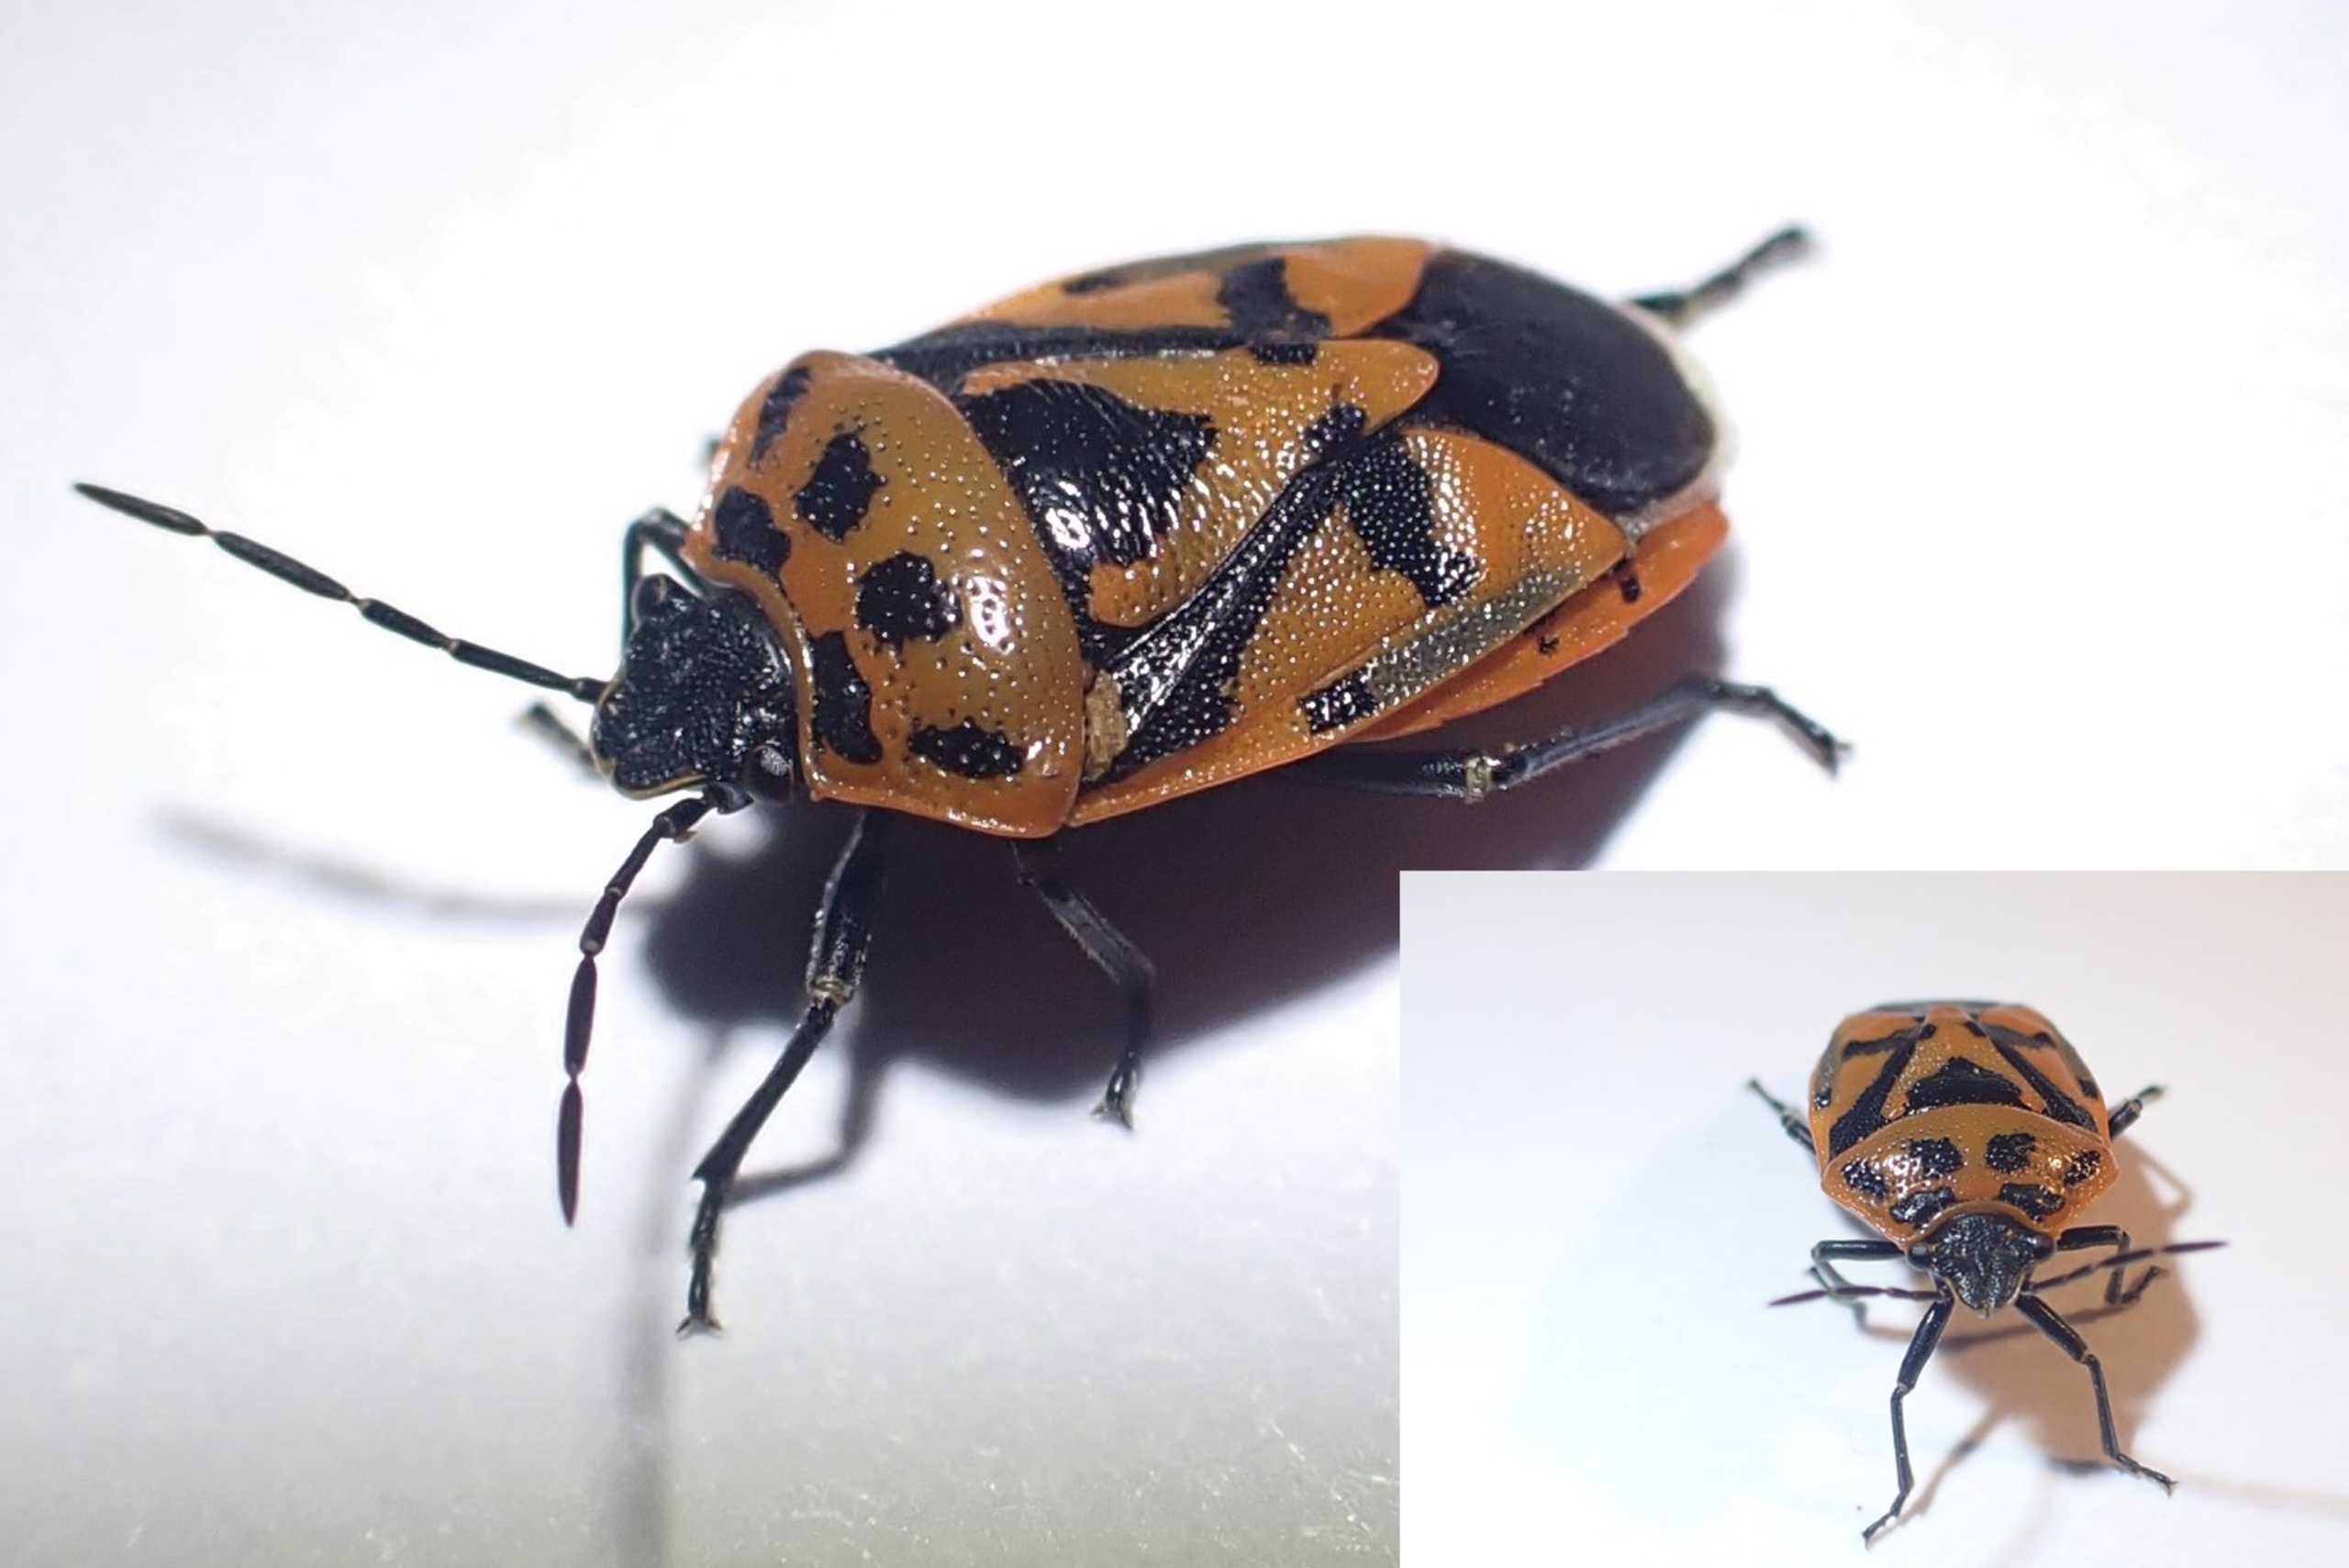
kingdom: Animalia
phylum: Arthropoda
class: Insecta
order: Hemiptera
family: Pentatomidae
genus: Eurydema
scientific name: Eurydema ornata
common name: Rød kåltæge
